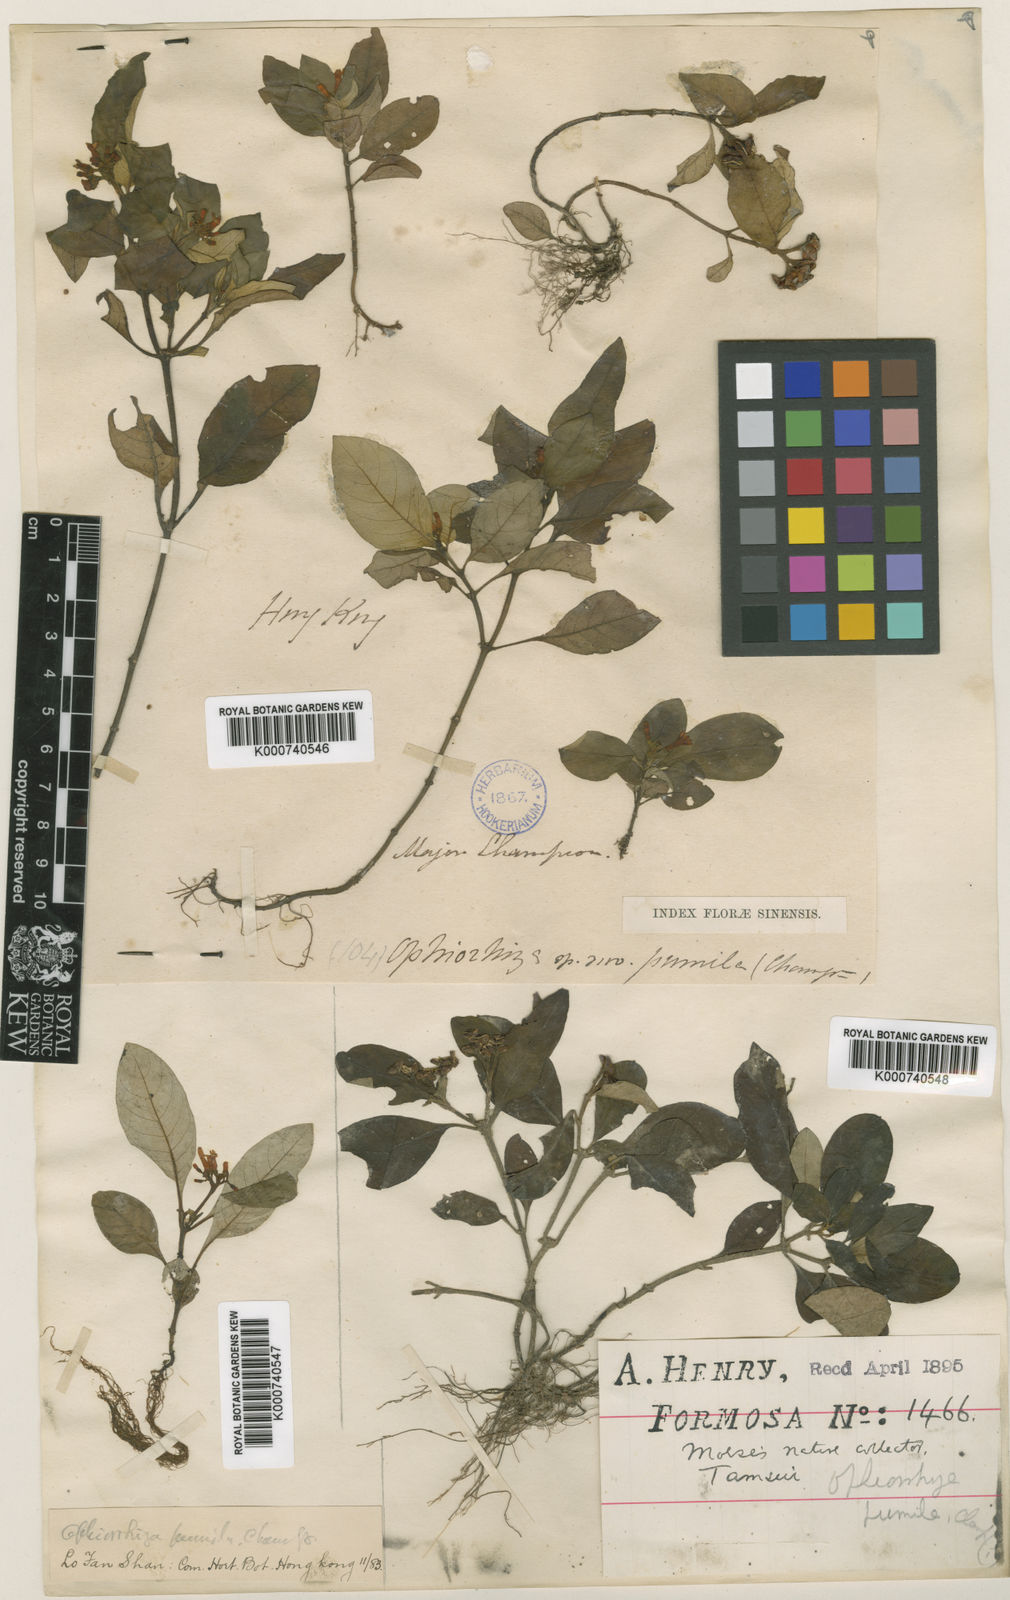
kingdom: Plantae
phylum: Tracheophyta
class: Magnoliopsida
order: Gentianales
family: Rubiaceae
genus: Ophiorrhiza
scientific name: Ophiorrhiza pumila
